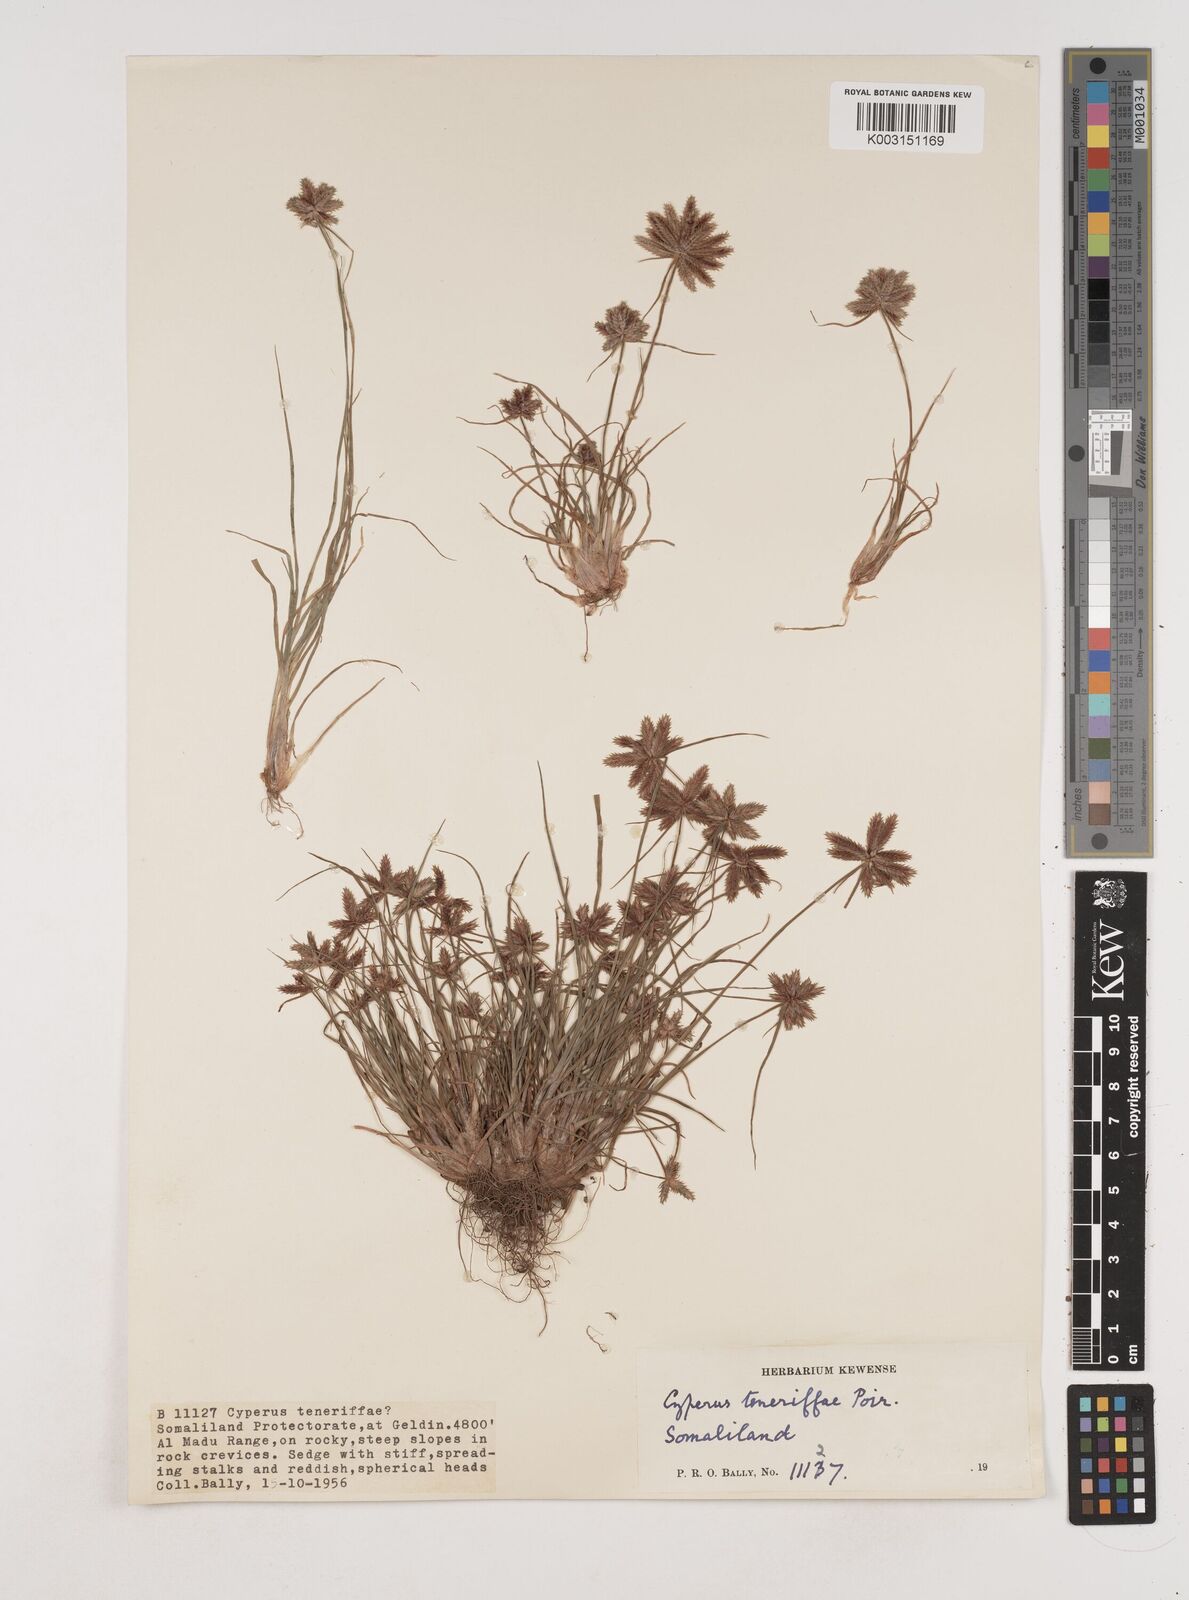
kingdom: Plantae
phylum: Tracheophyta
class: Liliopsida
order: Poales
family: Cyperaceae
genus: Cyperus
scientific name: Cyperus rubicundus
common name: Coco-grass
